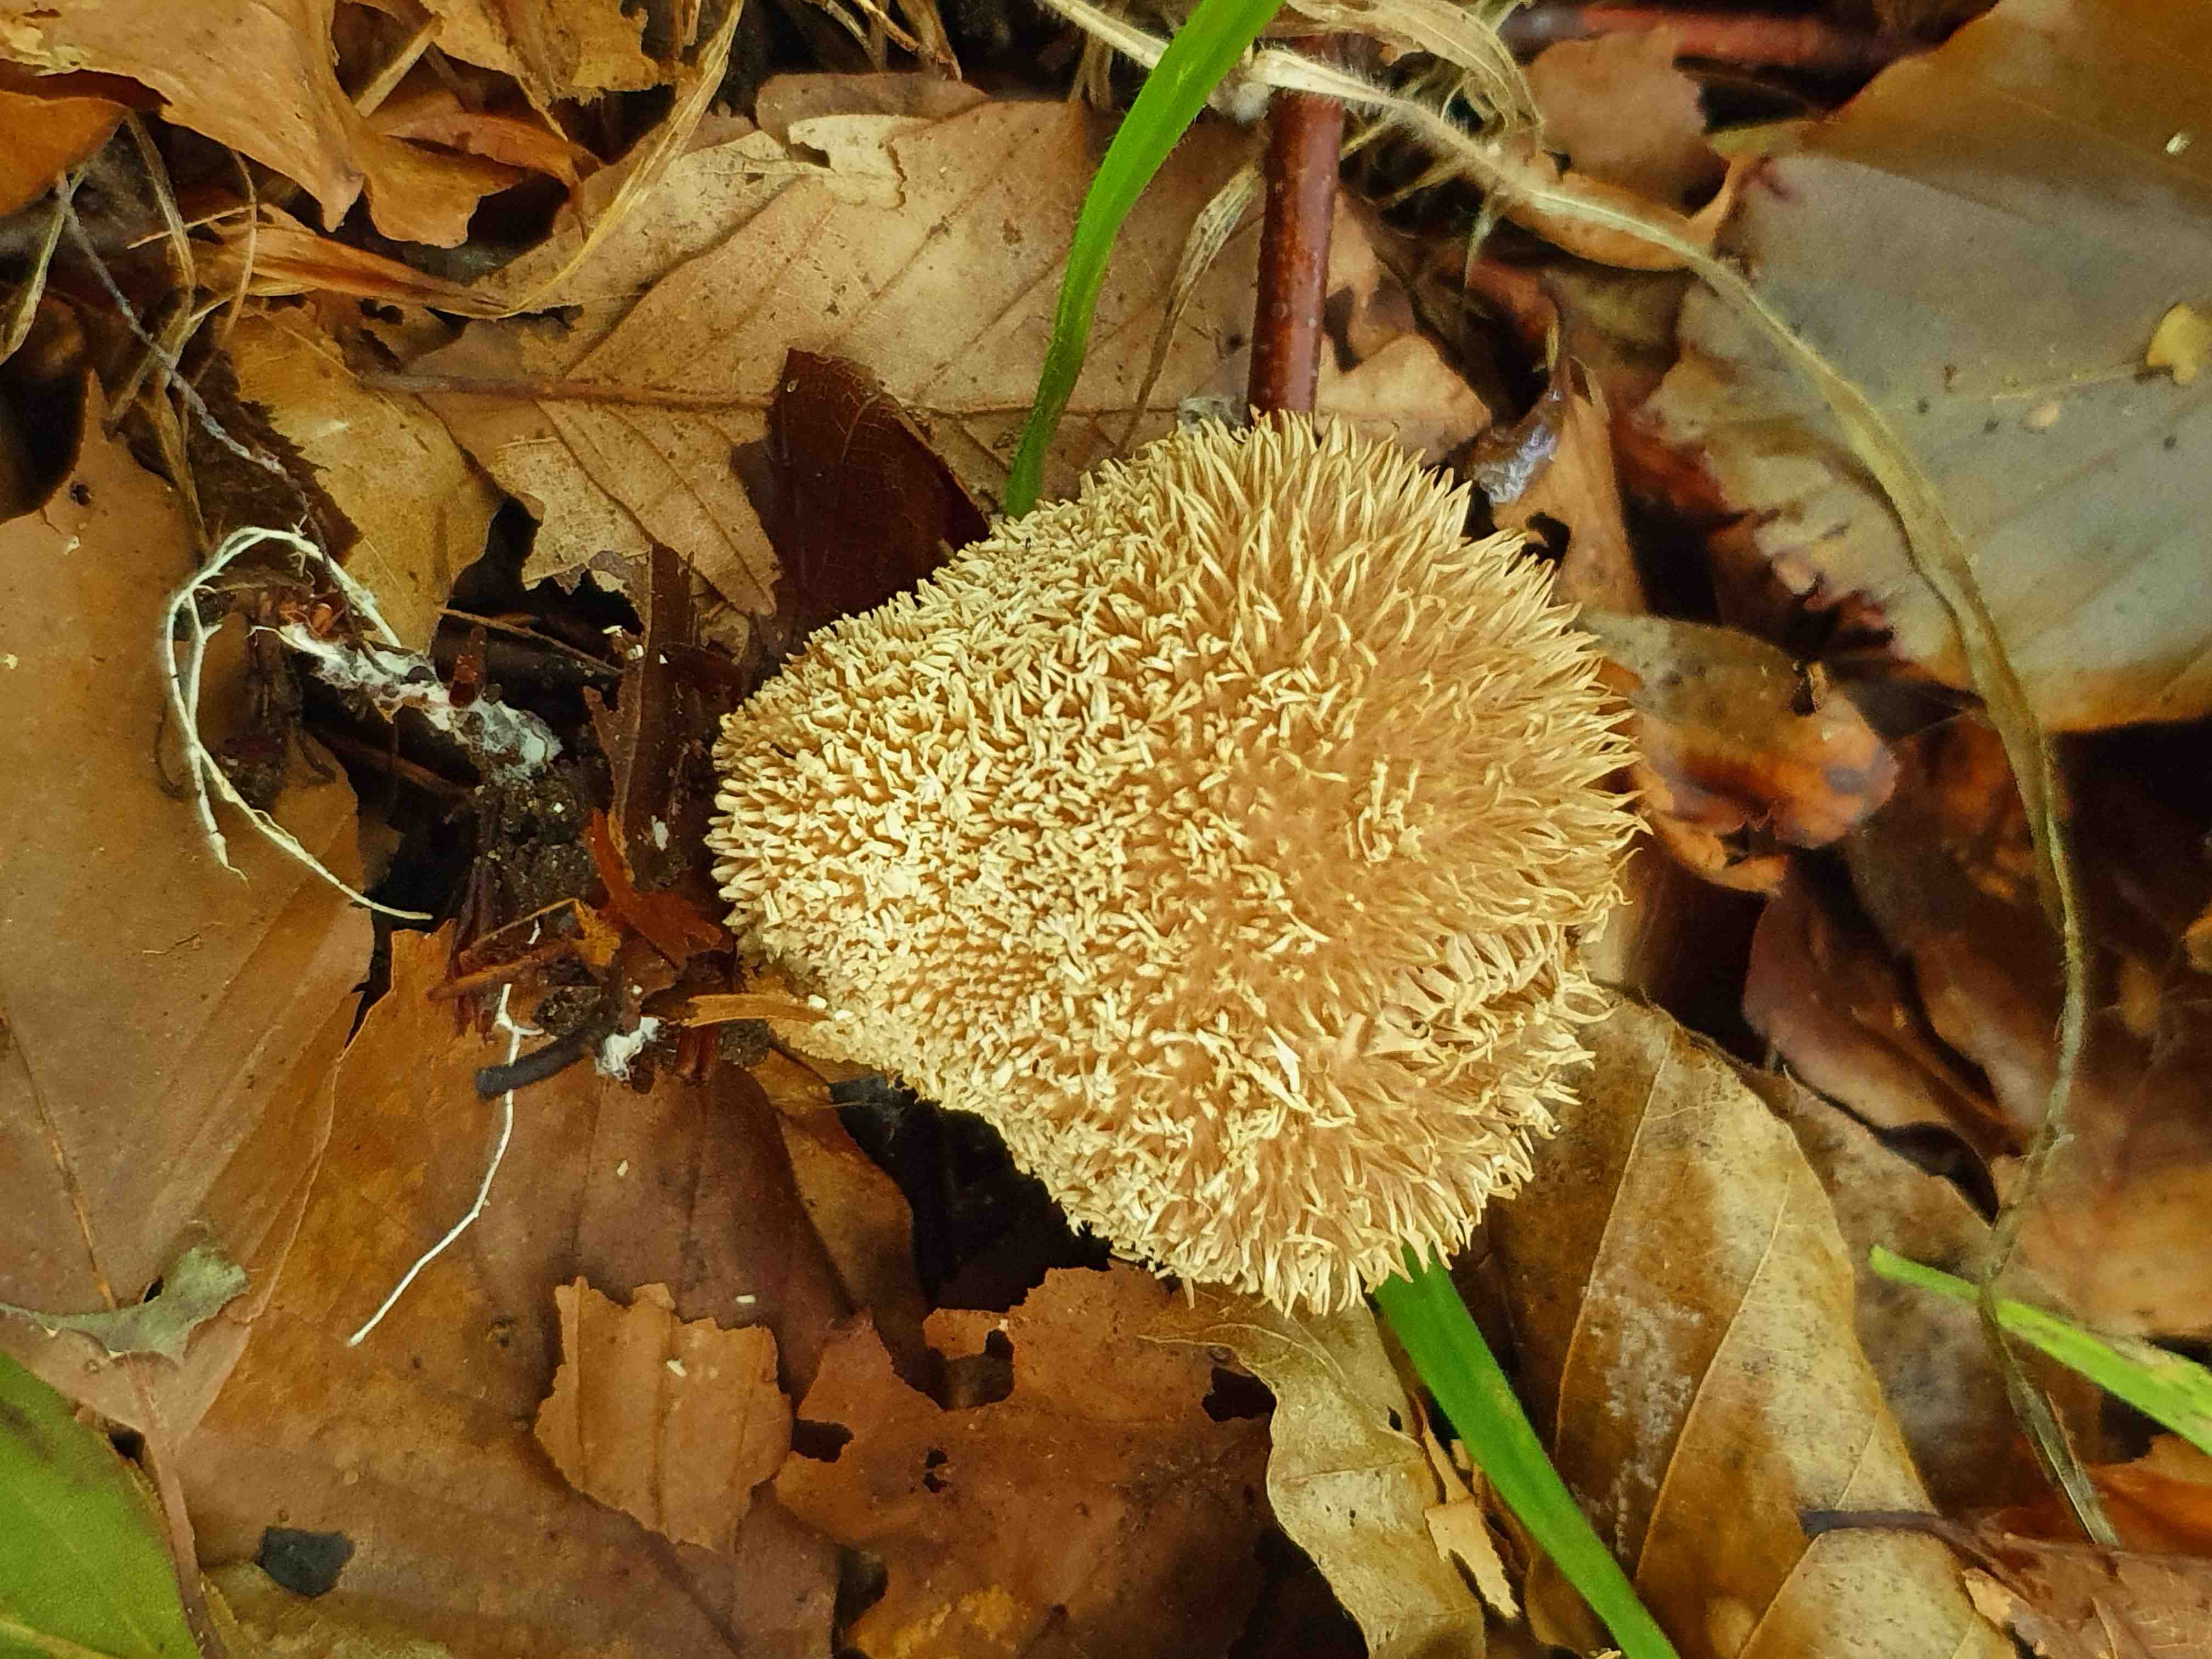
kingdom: Fungi
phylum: Basidiomycota
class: Agaricomycetes
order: Agaricales
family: Lycoperdaceae
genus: Lycoperdon
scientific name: Lycoperdon echinatum
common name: pindsvine-støvbold
